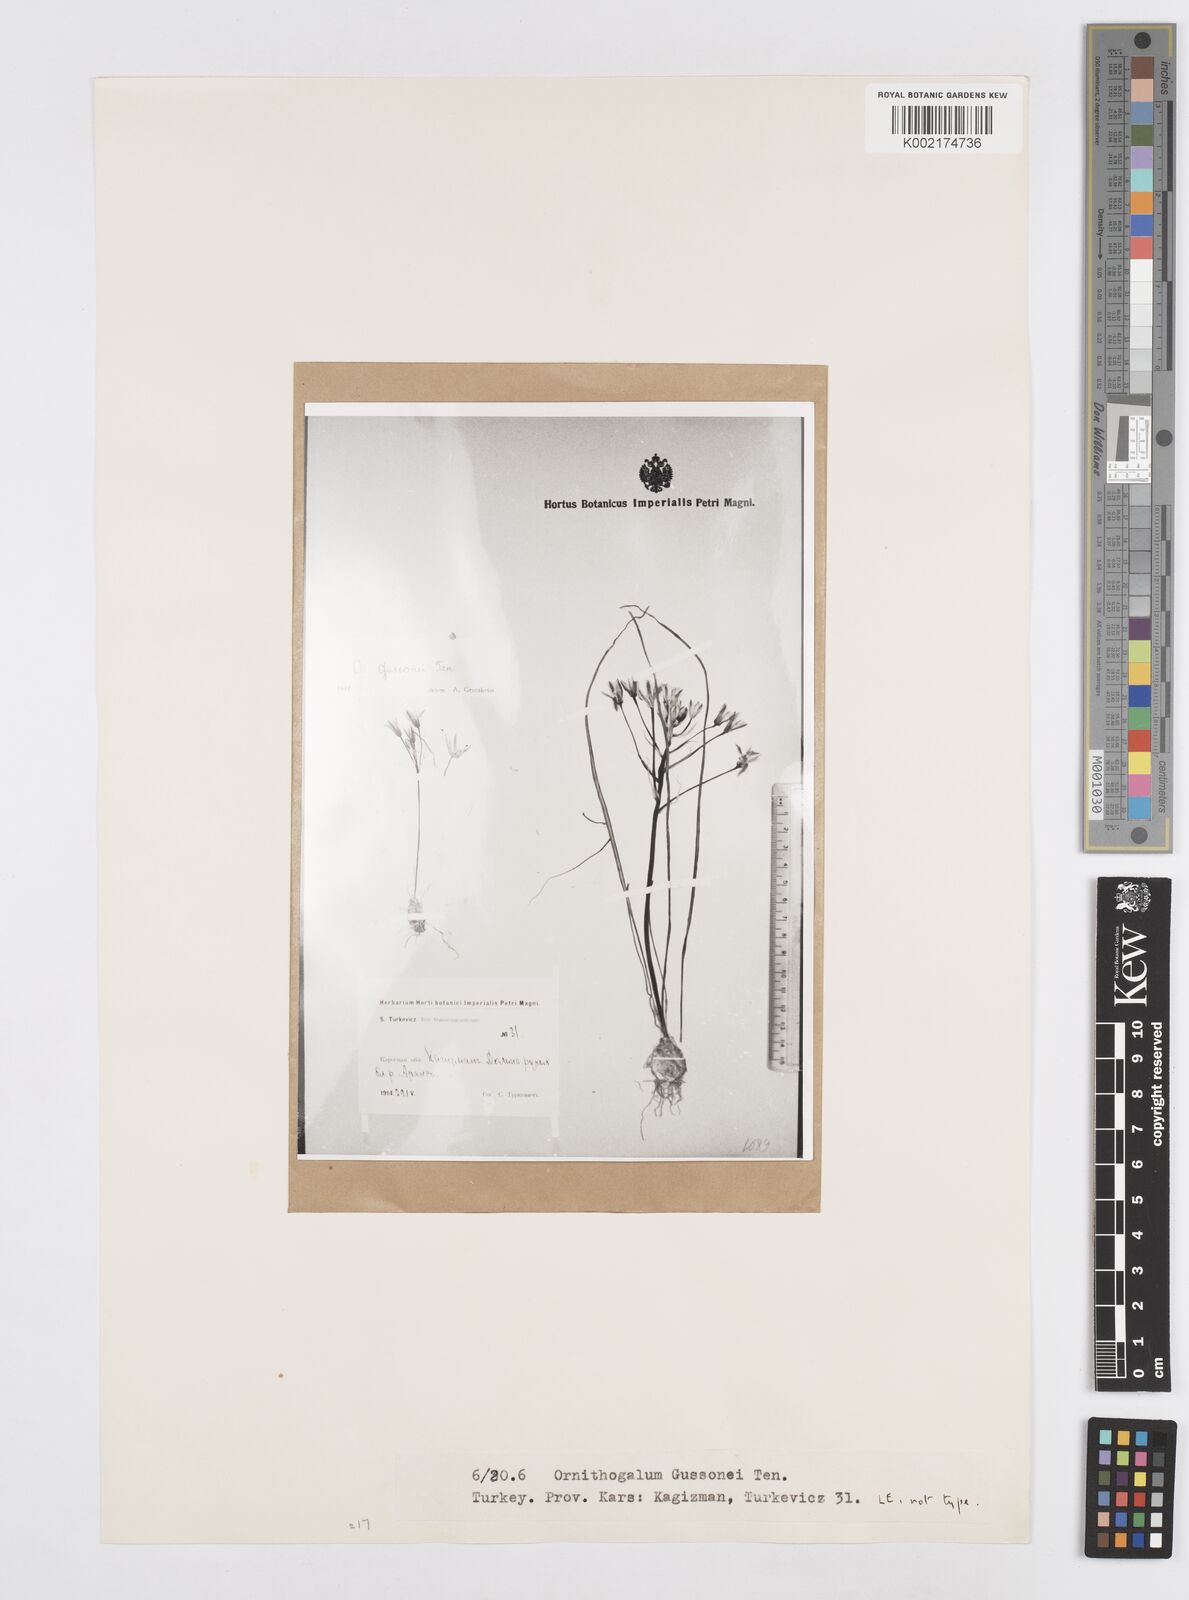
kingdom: Plantae
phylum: Tracheophyta
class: Liliopsida
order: Asparagales
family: Asparagaceae
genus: Ornithogalum
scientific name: Ornithogalum gussonei
